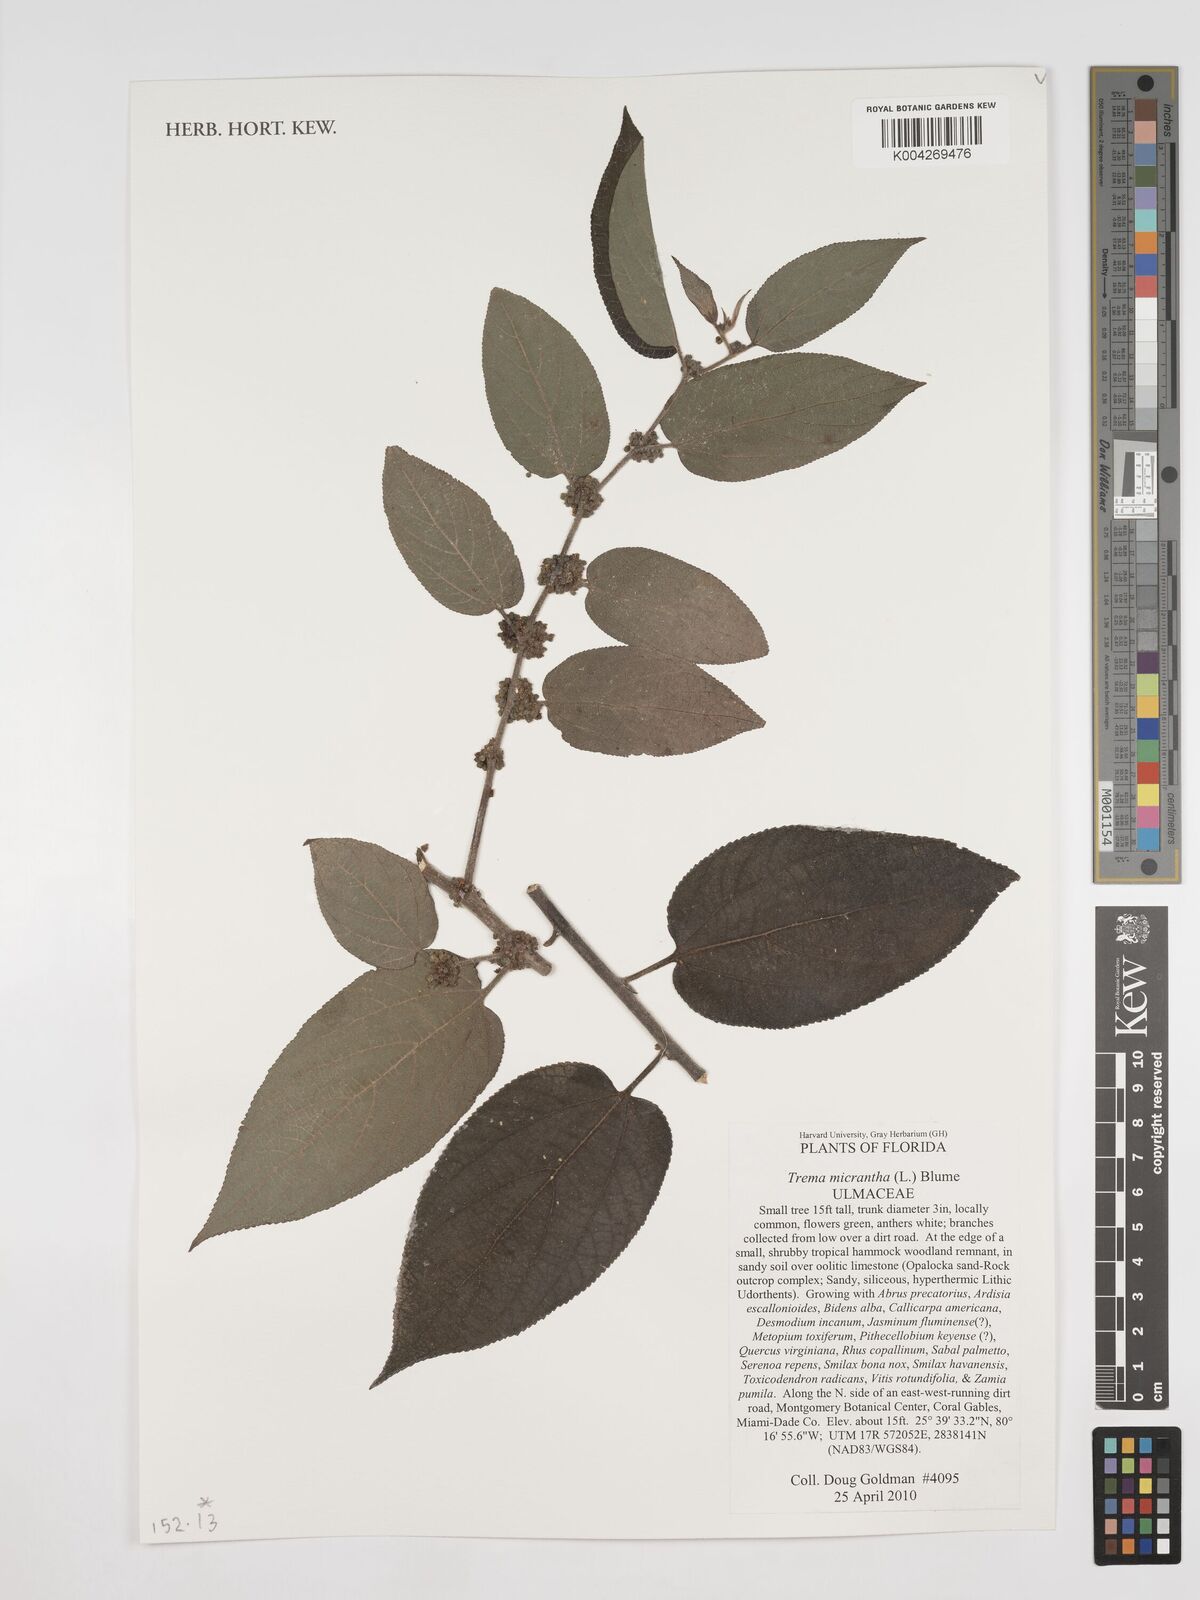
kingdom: Plantae
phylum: Tracheophyta
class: Magnoliopsida
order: Rosales
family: Cannabaceae
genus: Trema
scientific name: Trema micranthum
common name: Jamaican nettletree
